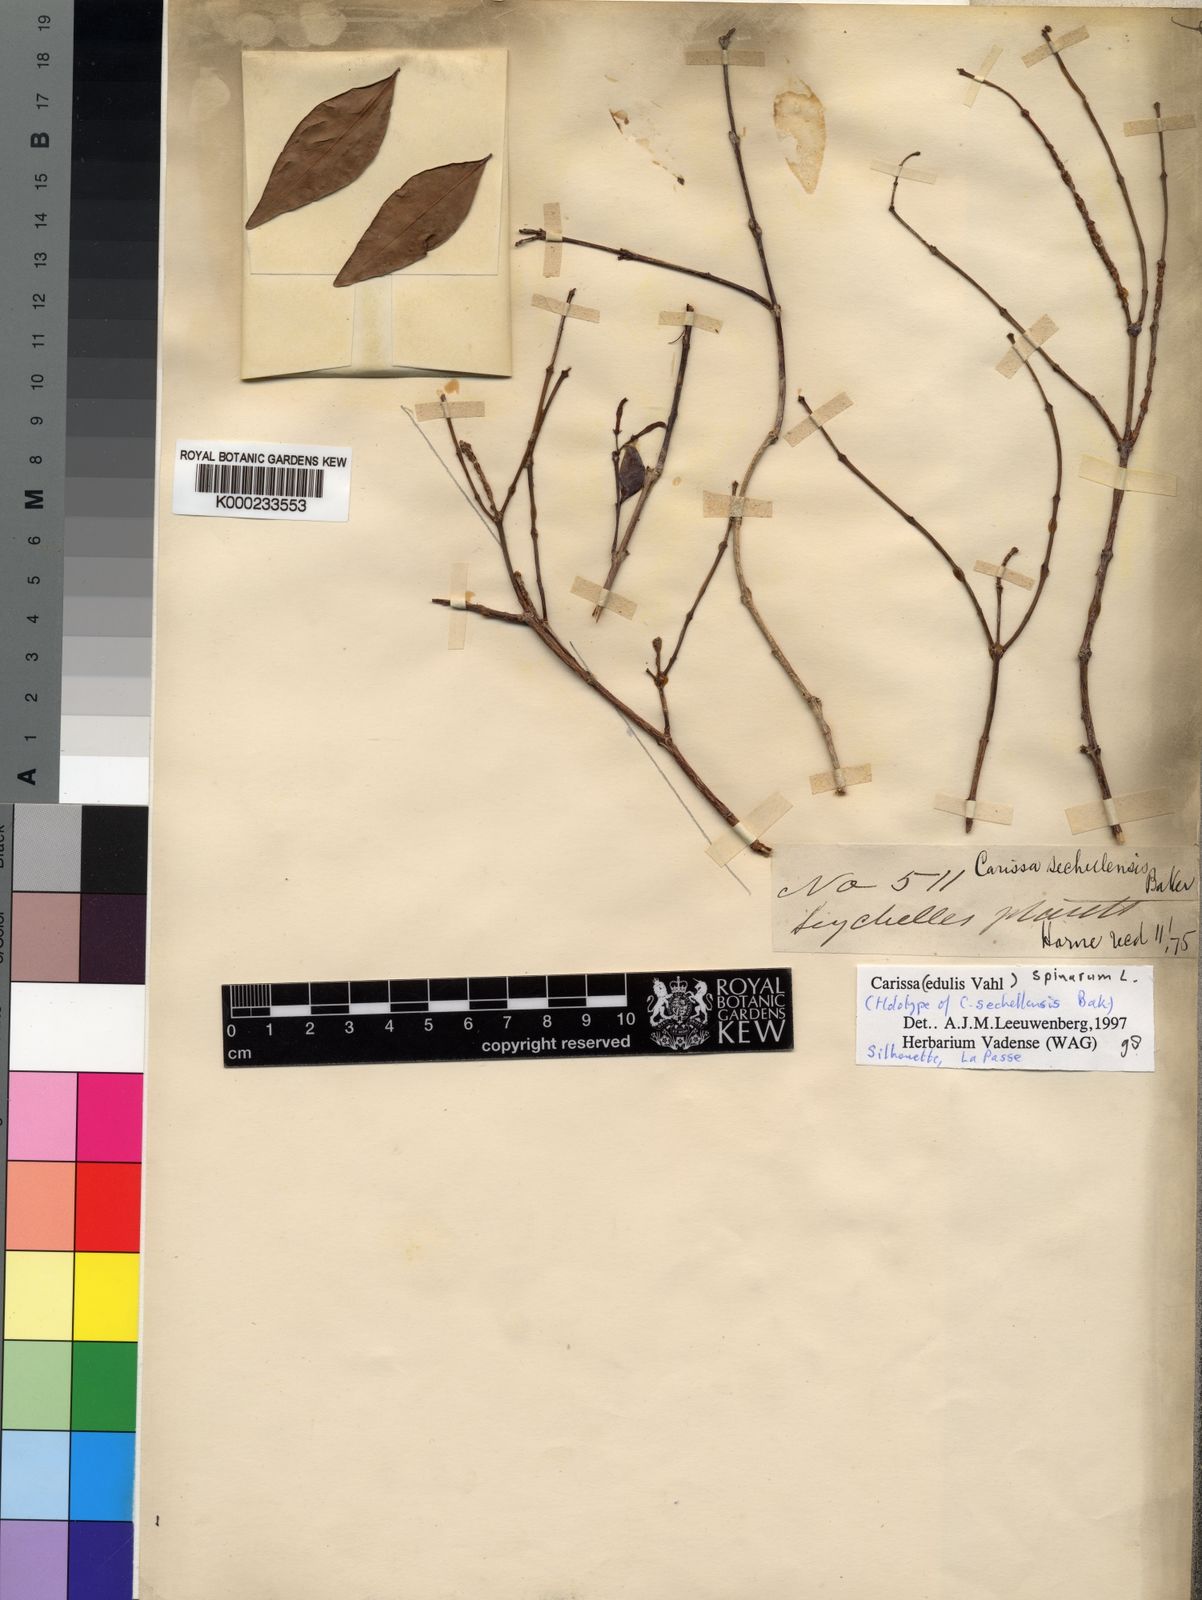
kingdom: Plantae
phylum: Tracheophyta
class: Magnoliopsida
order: Gentianales
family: Apocynaceae
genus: Carissa
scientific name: Carissa spinarum
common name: Egyptian carissa
